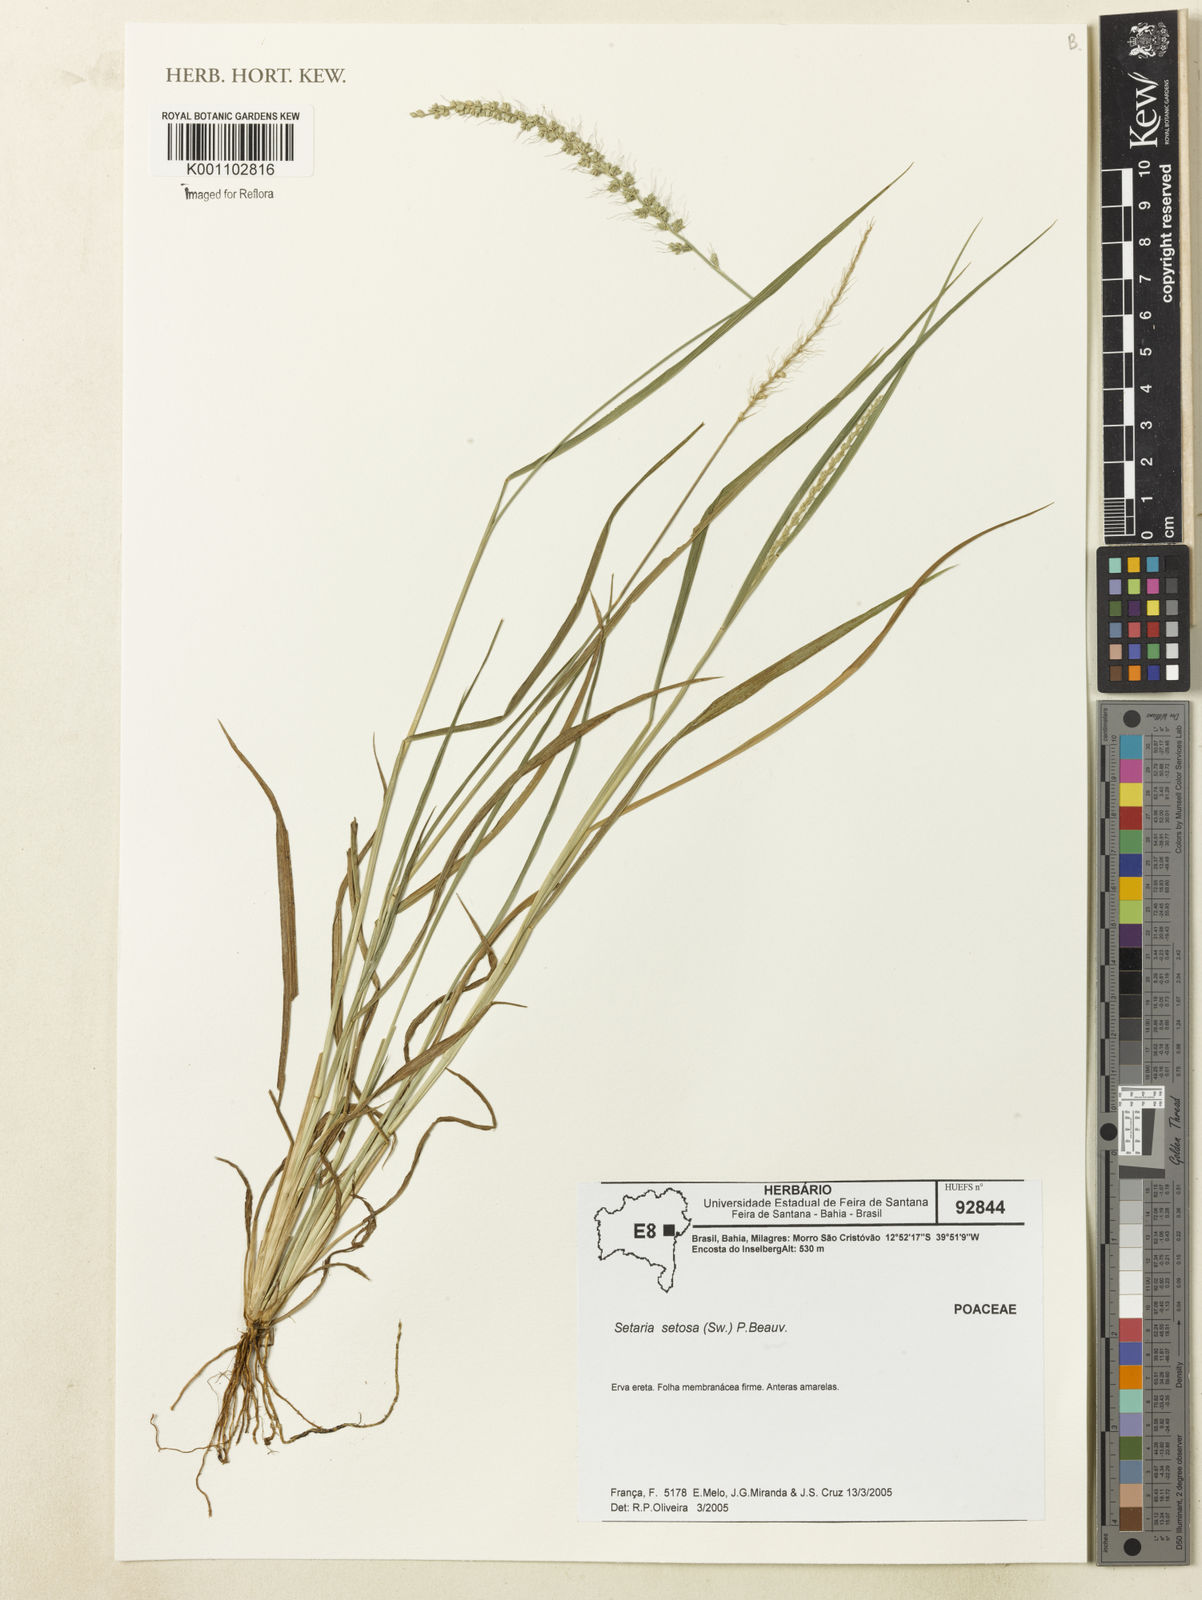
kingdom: Plantae
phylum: Tracheophyta
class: Liliopsida
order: Poales
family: Poaceae
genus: Setaria
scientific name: Setaria setosa
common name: West indies bristle grass
